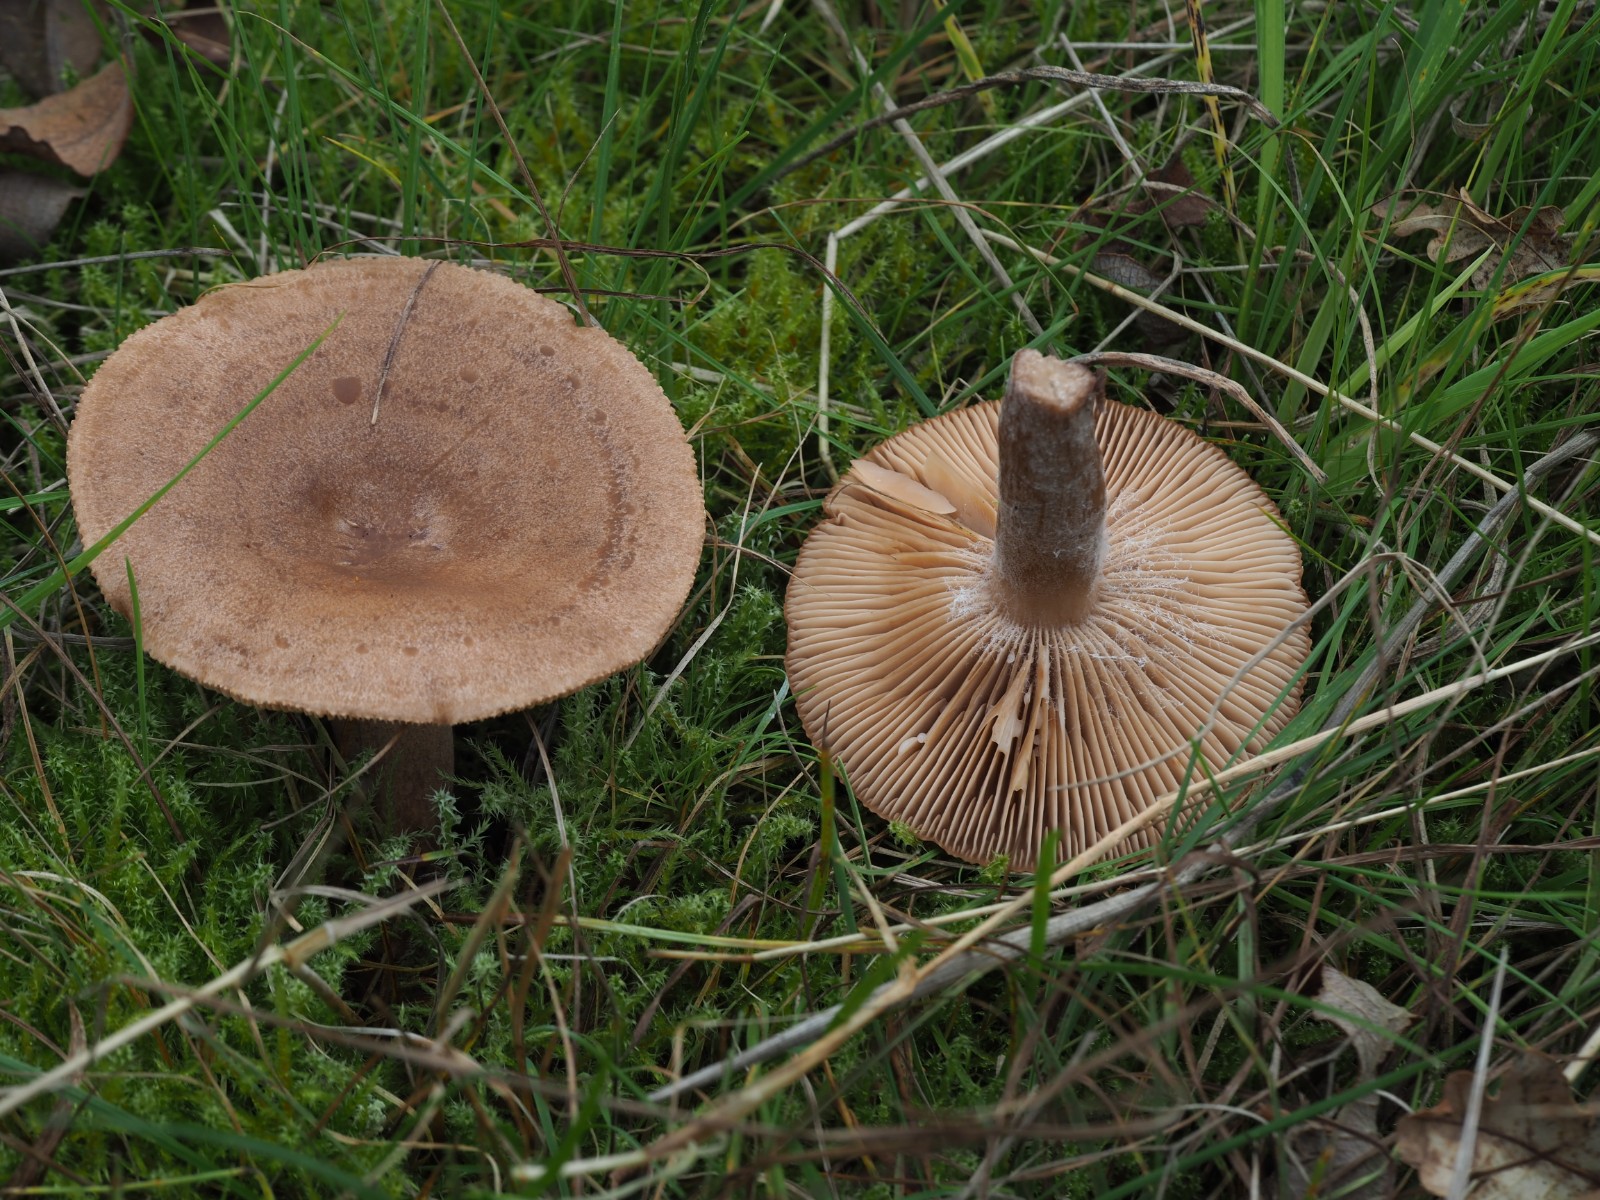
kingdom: Fungi
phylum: Basidiomycota
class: Agaricomycetes
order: Russulales
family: Russulaceae
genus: Lactarius
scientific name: Lactarius quietus
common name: ege-mælkehat
